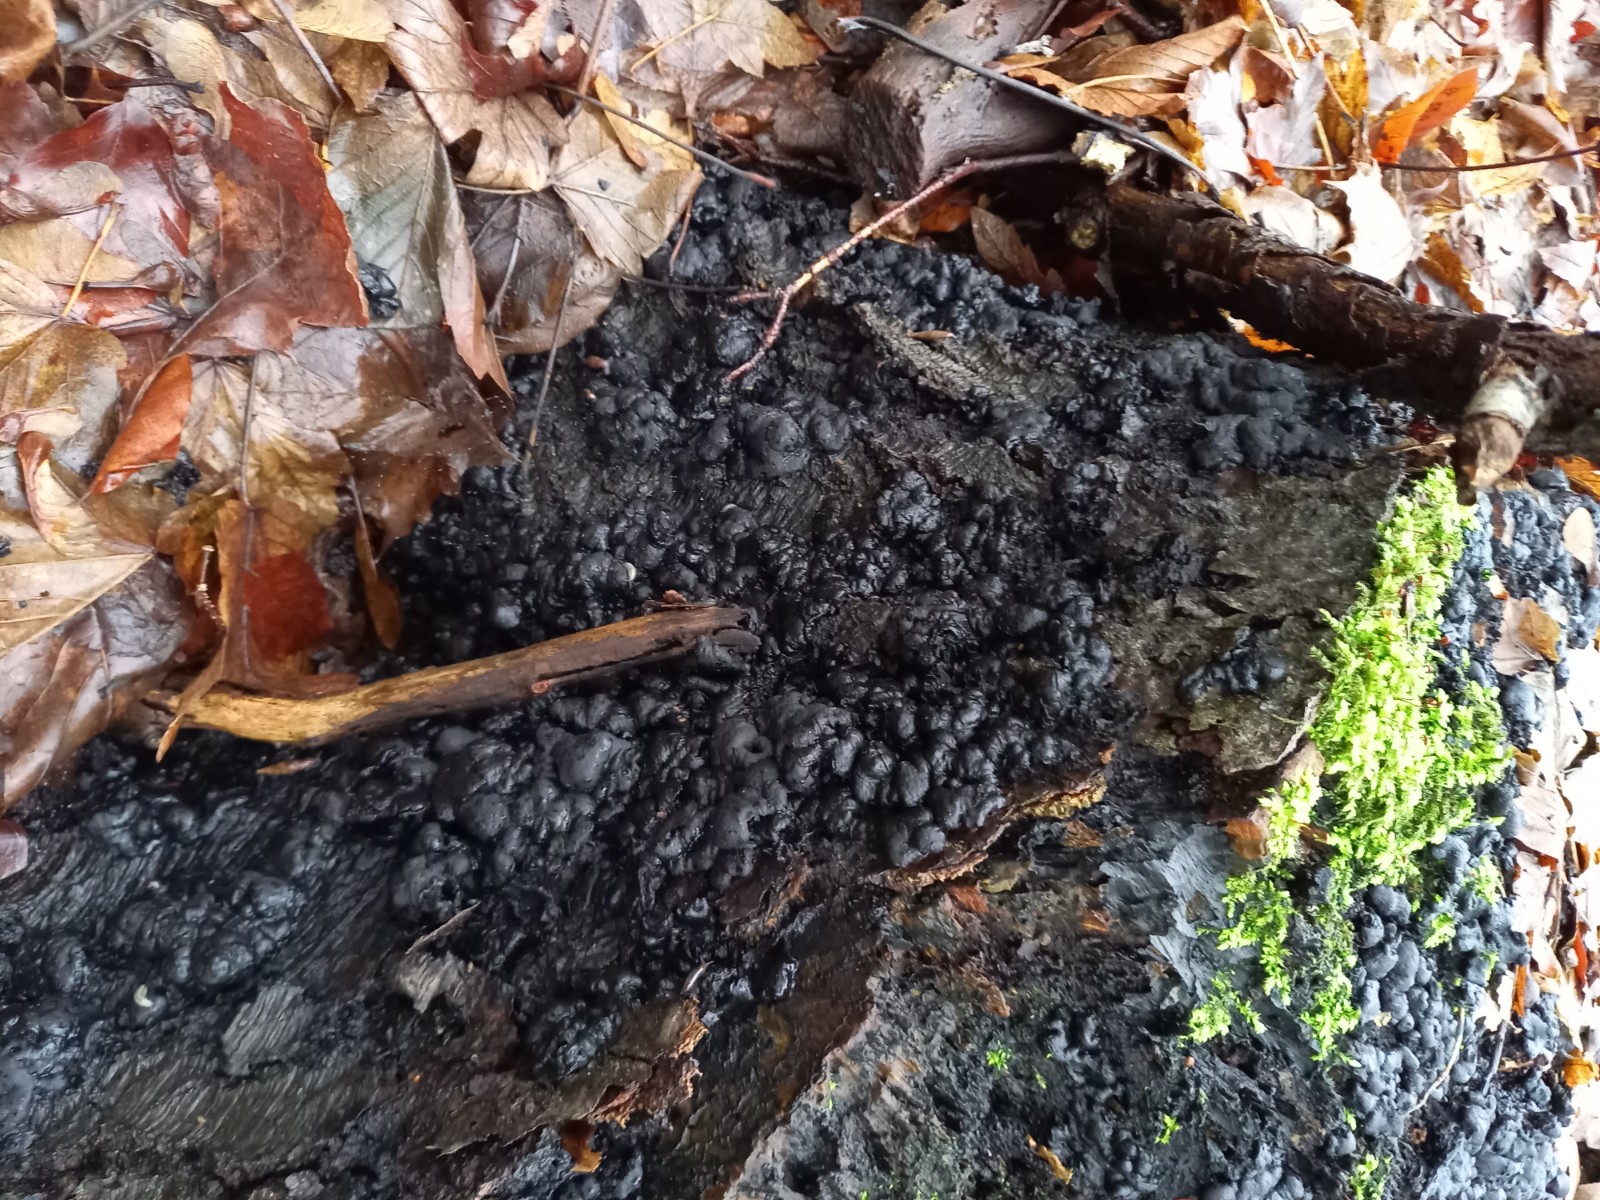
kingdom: Fungi
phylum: Ascomycota
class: Sordariomycetes
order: Xylariales
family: Xylariaceae
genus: Kretzschmaria
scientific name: Kretzschmaria deusta
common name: stor kulsvamp
